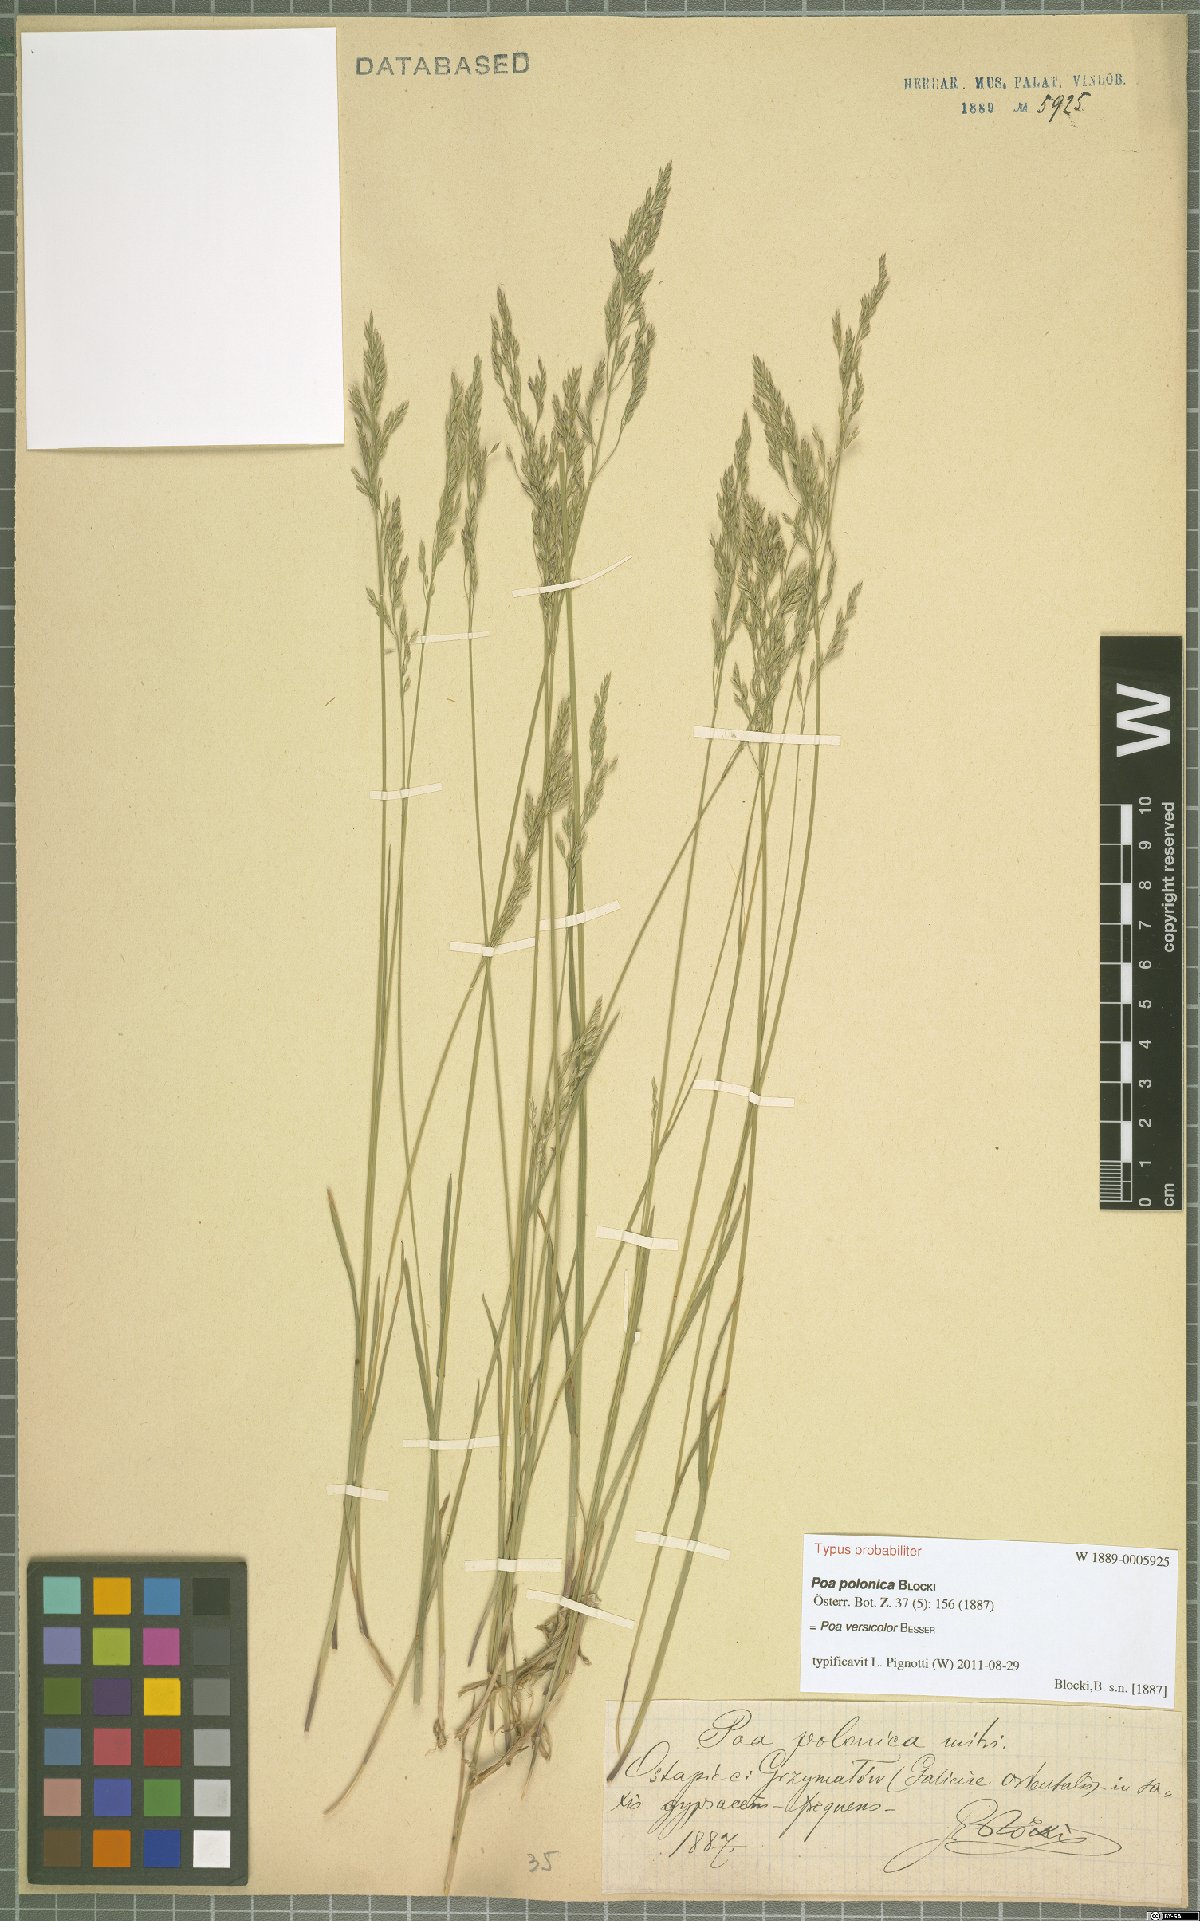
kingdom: Plantae
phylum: Tracheophyta
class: Liliopsida
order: Poales
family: Poaceae
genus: Poa
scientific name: Poa versicolor
